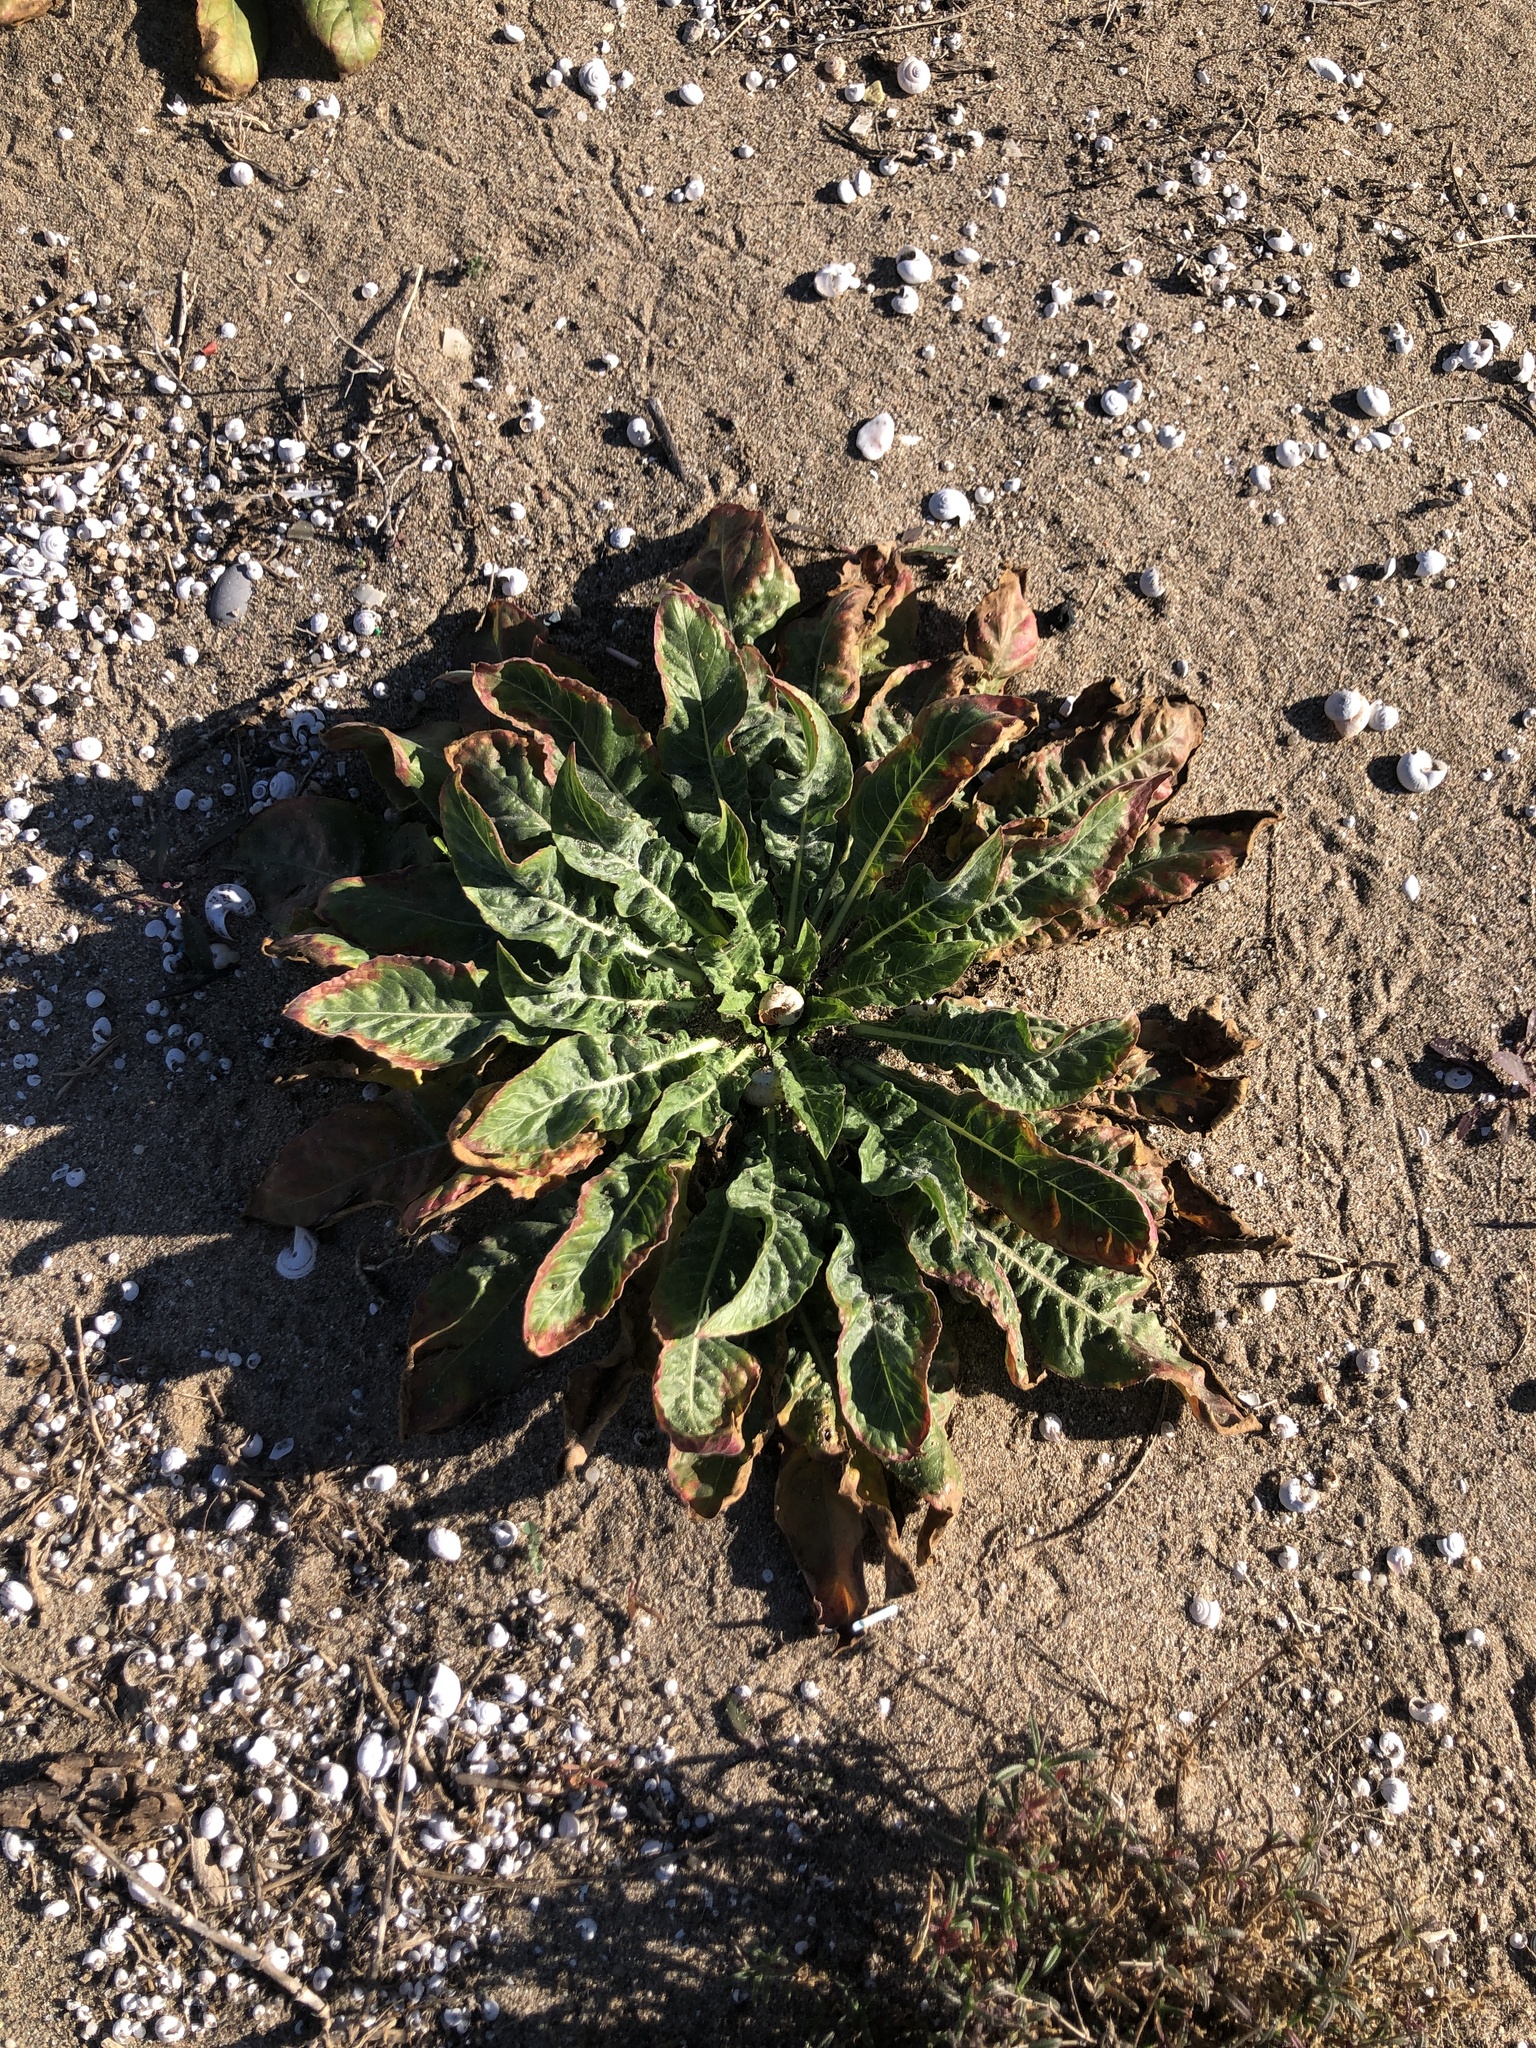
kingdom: Plantae
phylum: Tracheophyta
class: Magnoliopsida
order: Myrtales
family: Onagraceae
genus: Oenothera
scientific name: Oenothera glazioviana
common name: Large-flowered evening-primrose
